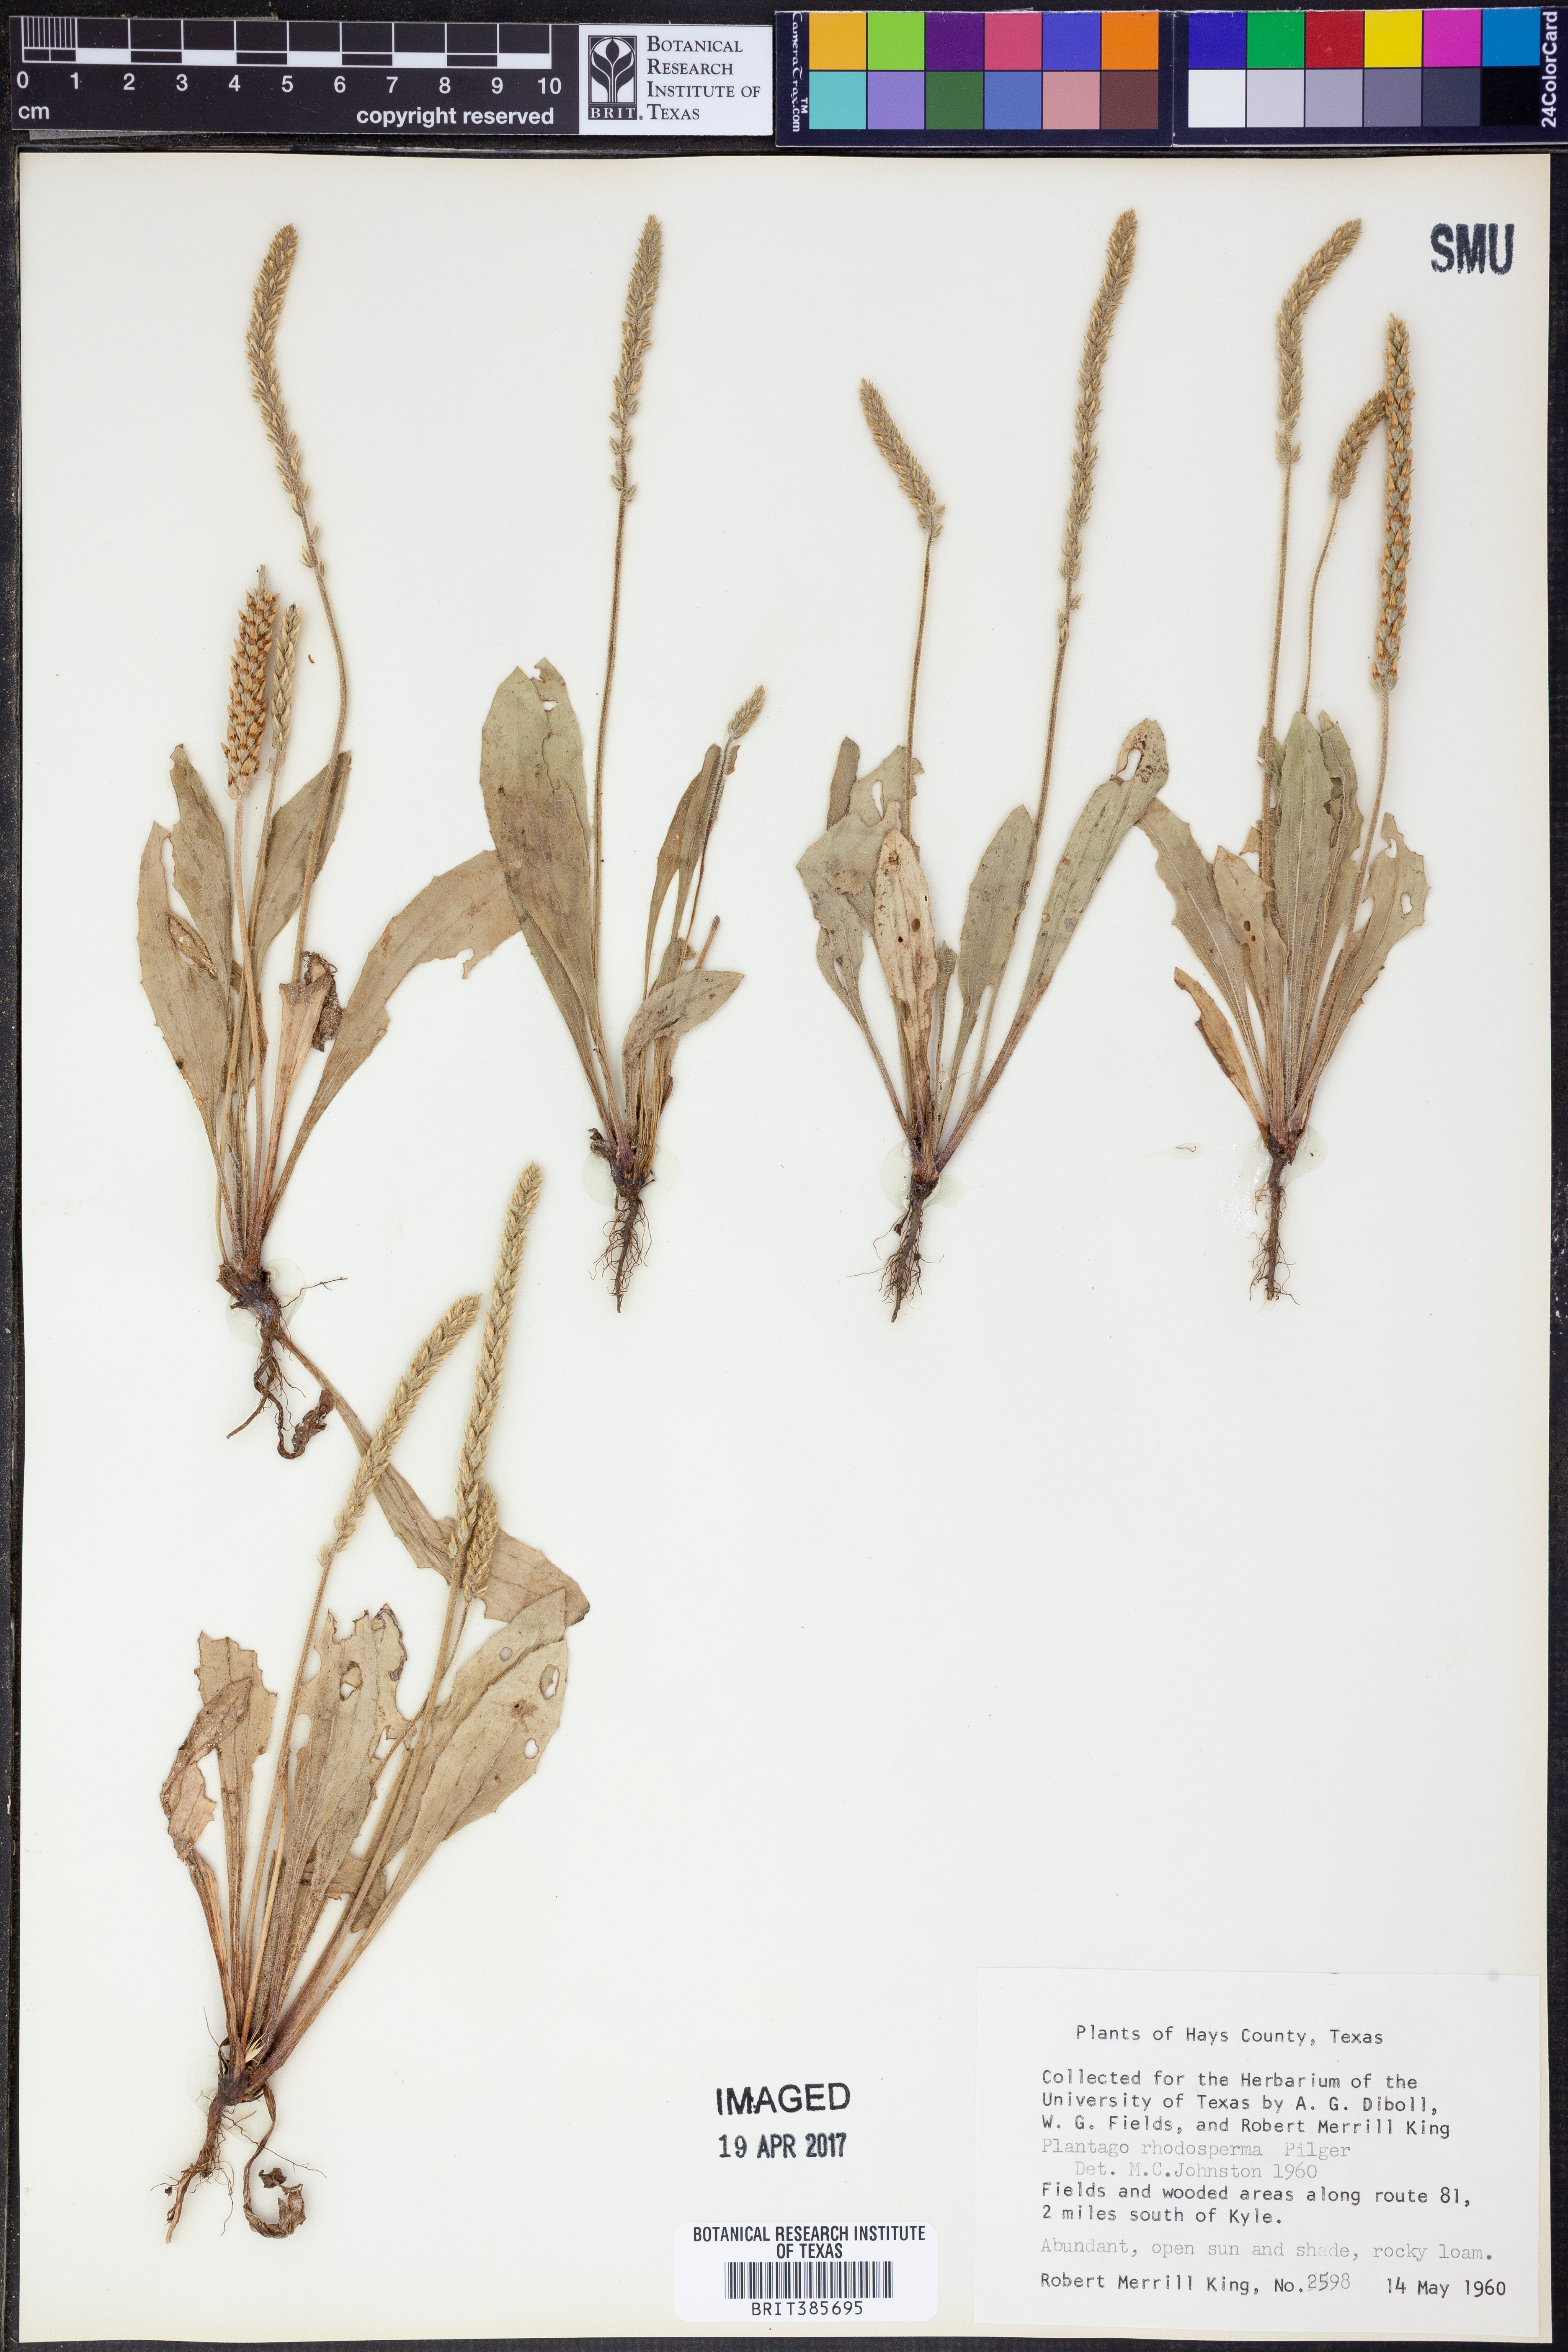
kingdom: Plantae
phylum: Tracheophyta
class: Magnoliopsida
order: Lamiales
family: Plantaginaceae
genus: Plantago
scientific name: Plantago rhodosperma
